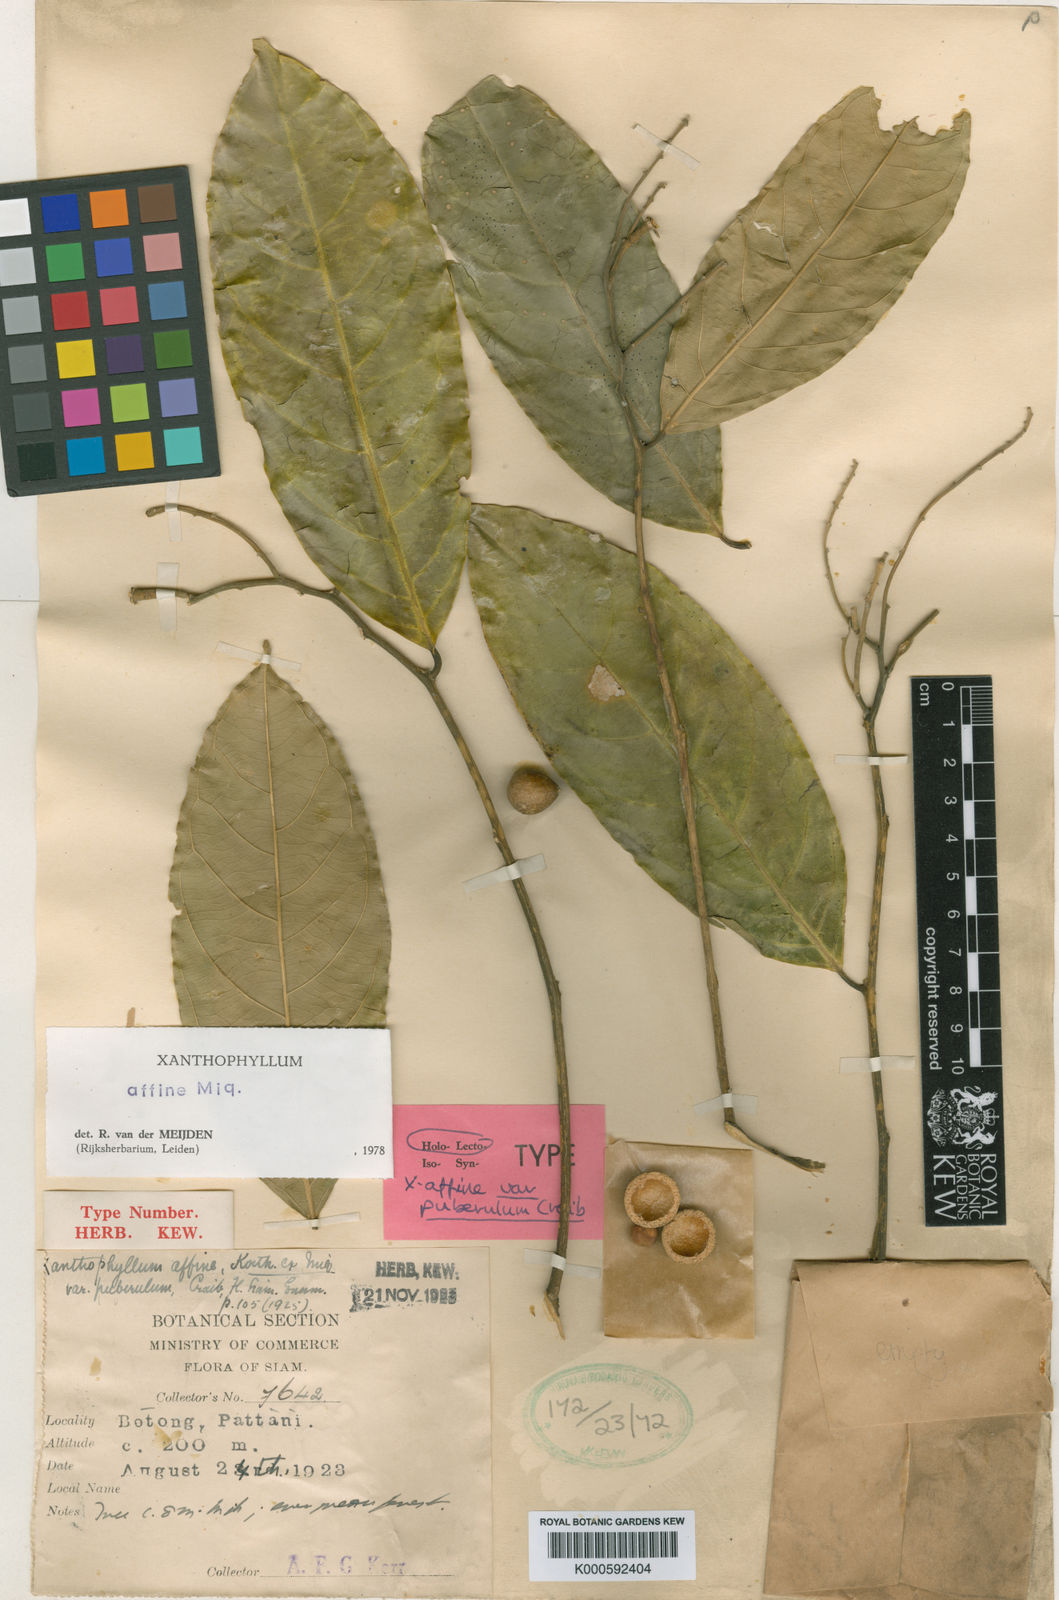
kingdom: Plantae
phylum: Tracheophyta
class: Magnoliopsida
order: Fabales
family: Polygalaceae
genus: Xanthophyllum
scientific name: Xanthophyllum flavescens
